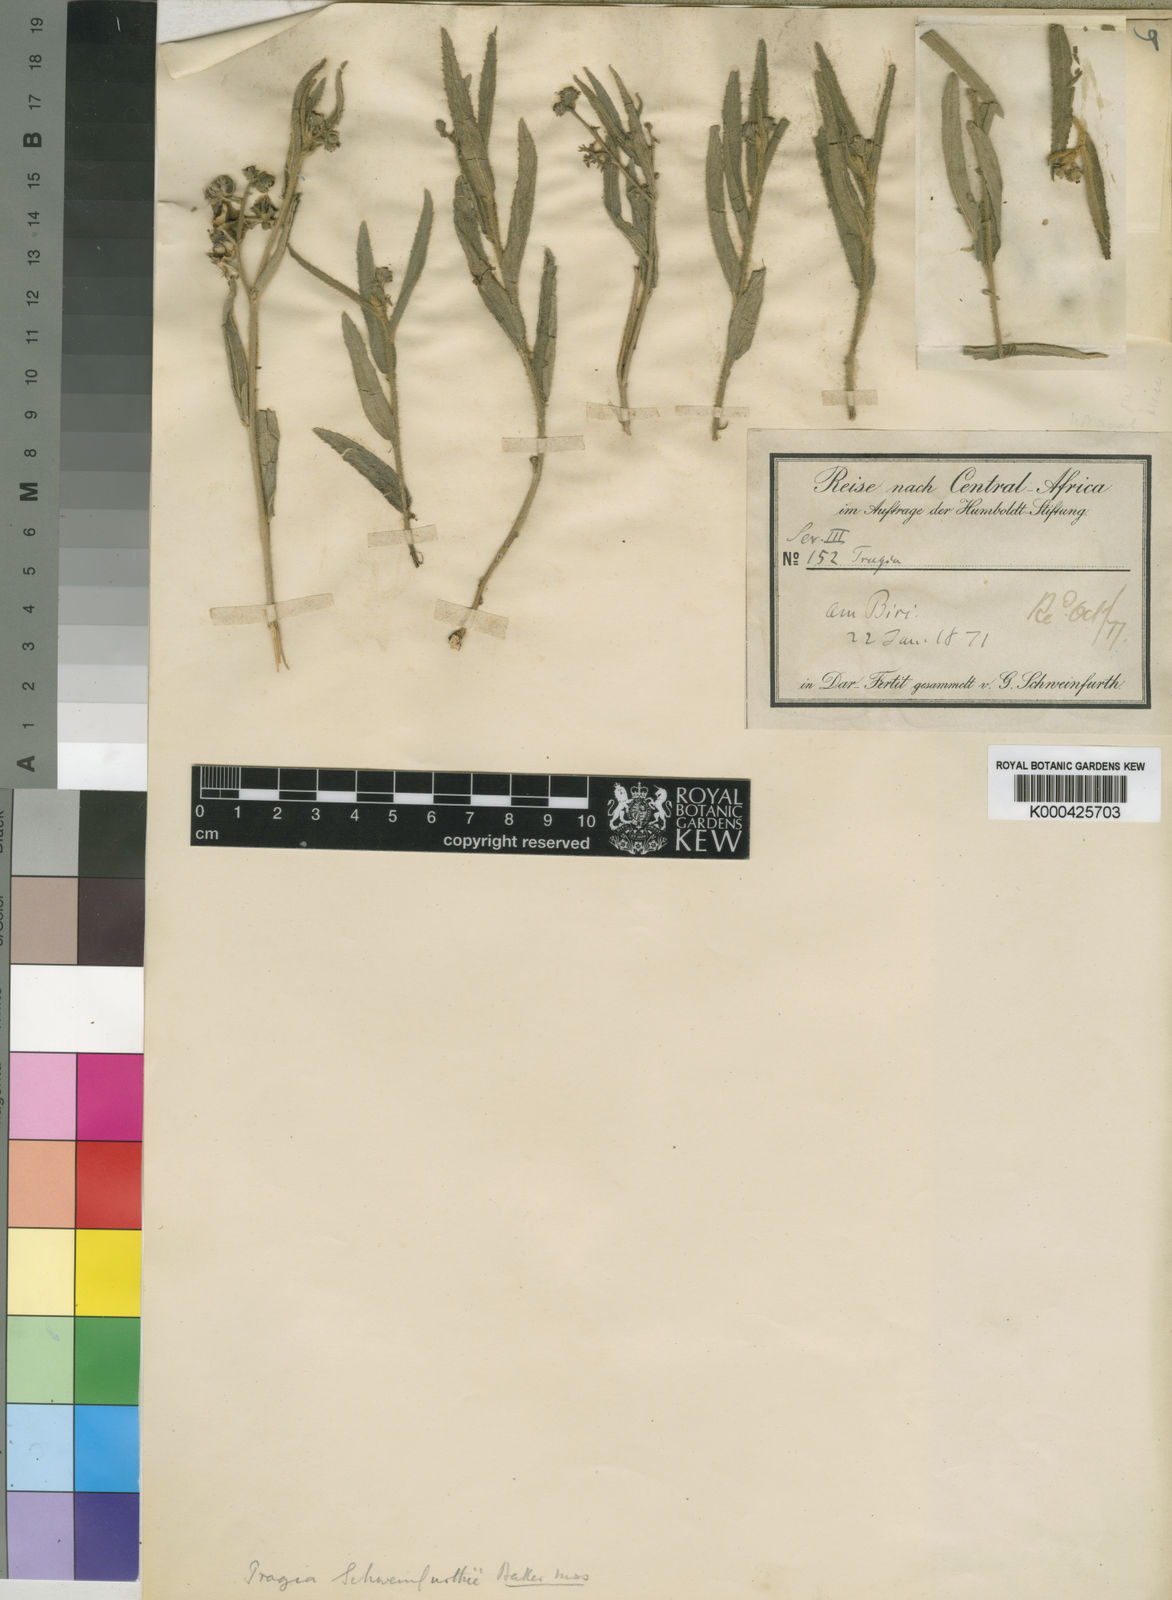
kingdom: Plantae
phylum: Tracheophyta
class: Magnoliopsida
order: Malpighiales
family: Euphorbiaceae
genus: Tragia
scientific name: Tragia schweinfurthii
